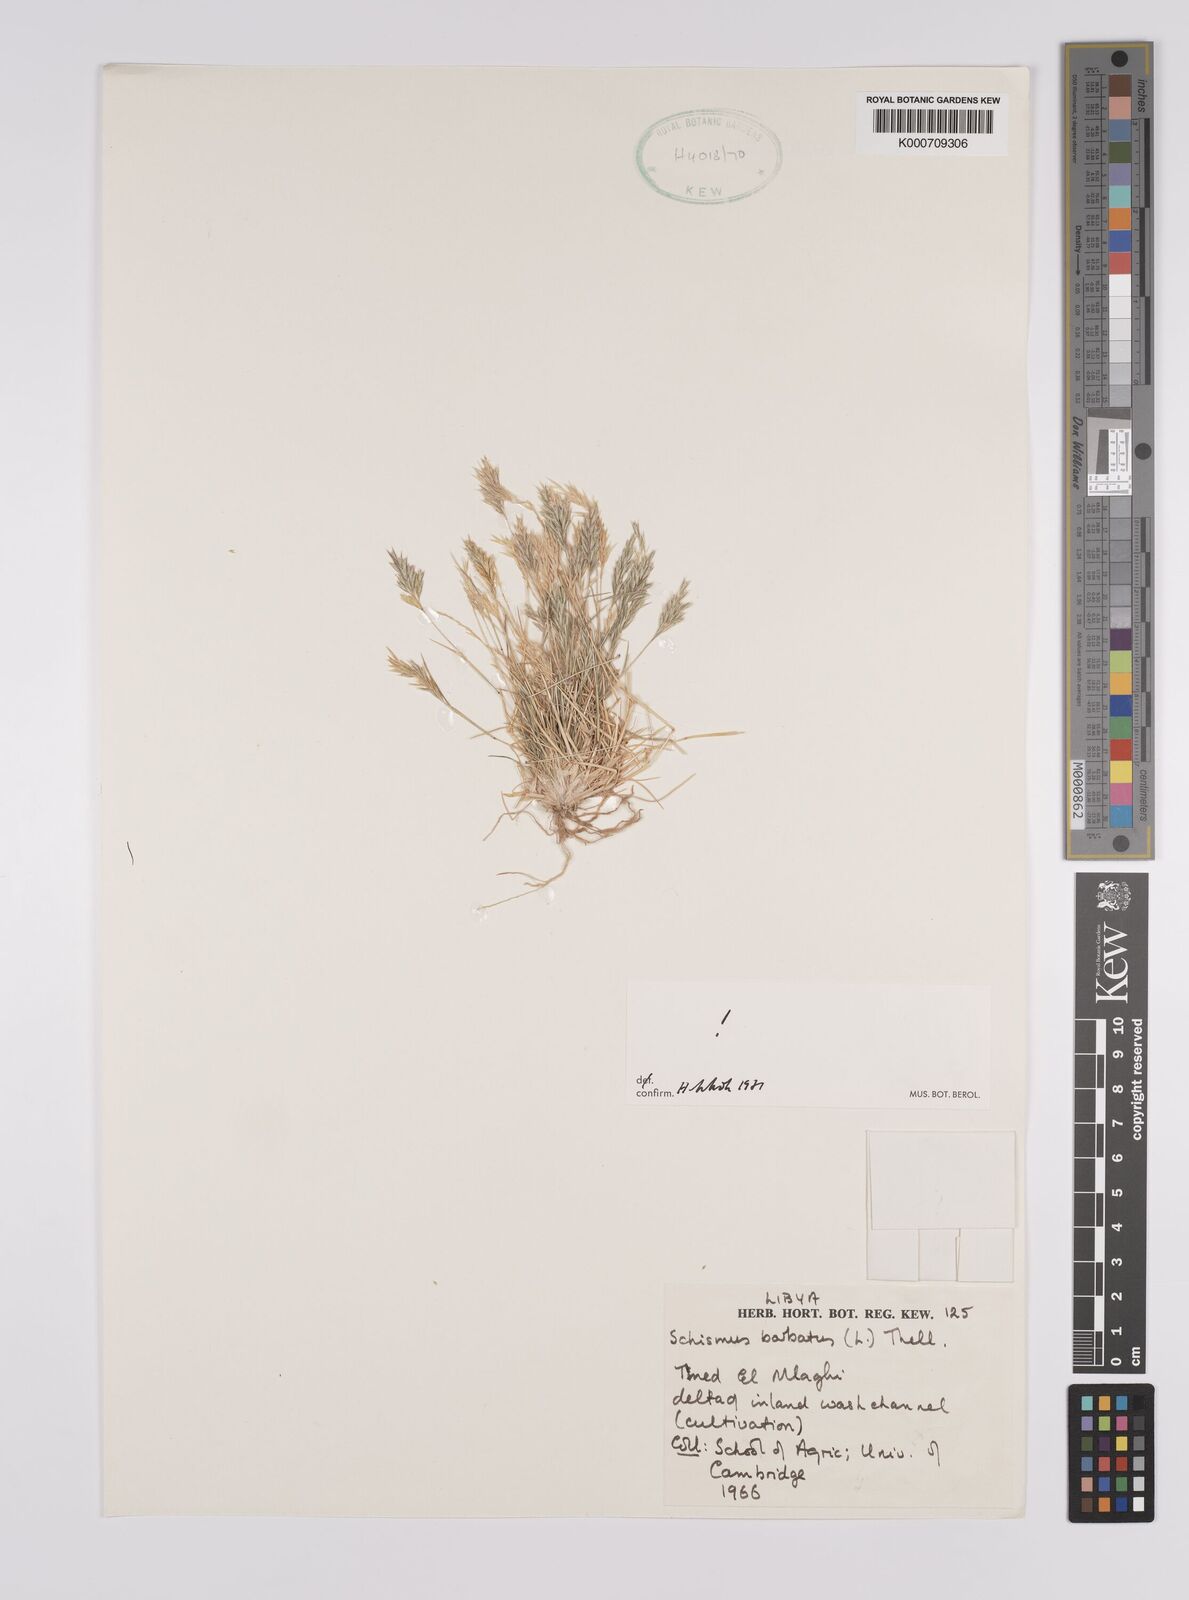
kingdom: Plantae
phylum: Tracheophyta
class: Liliopsida
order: Poales
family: Poaceae
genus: Schismus
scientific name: Schismus barbatus
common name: Kelch-grass
